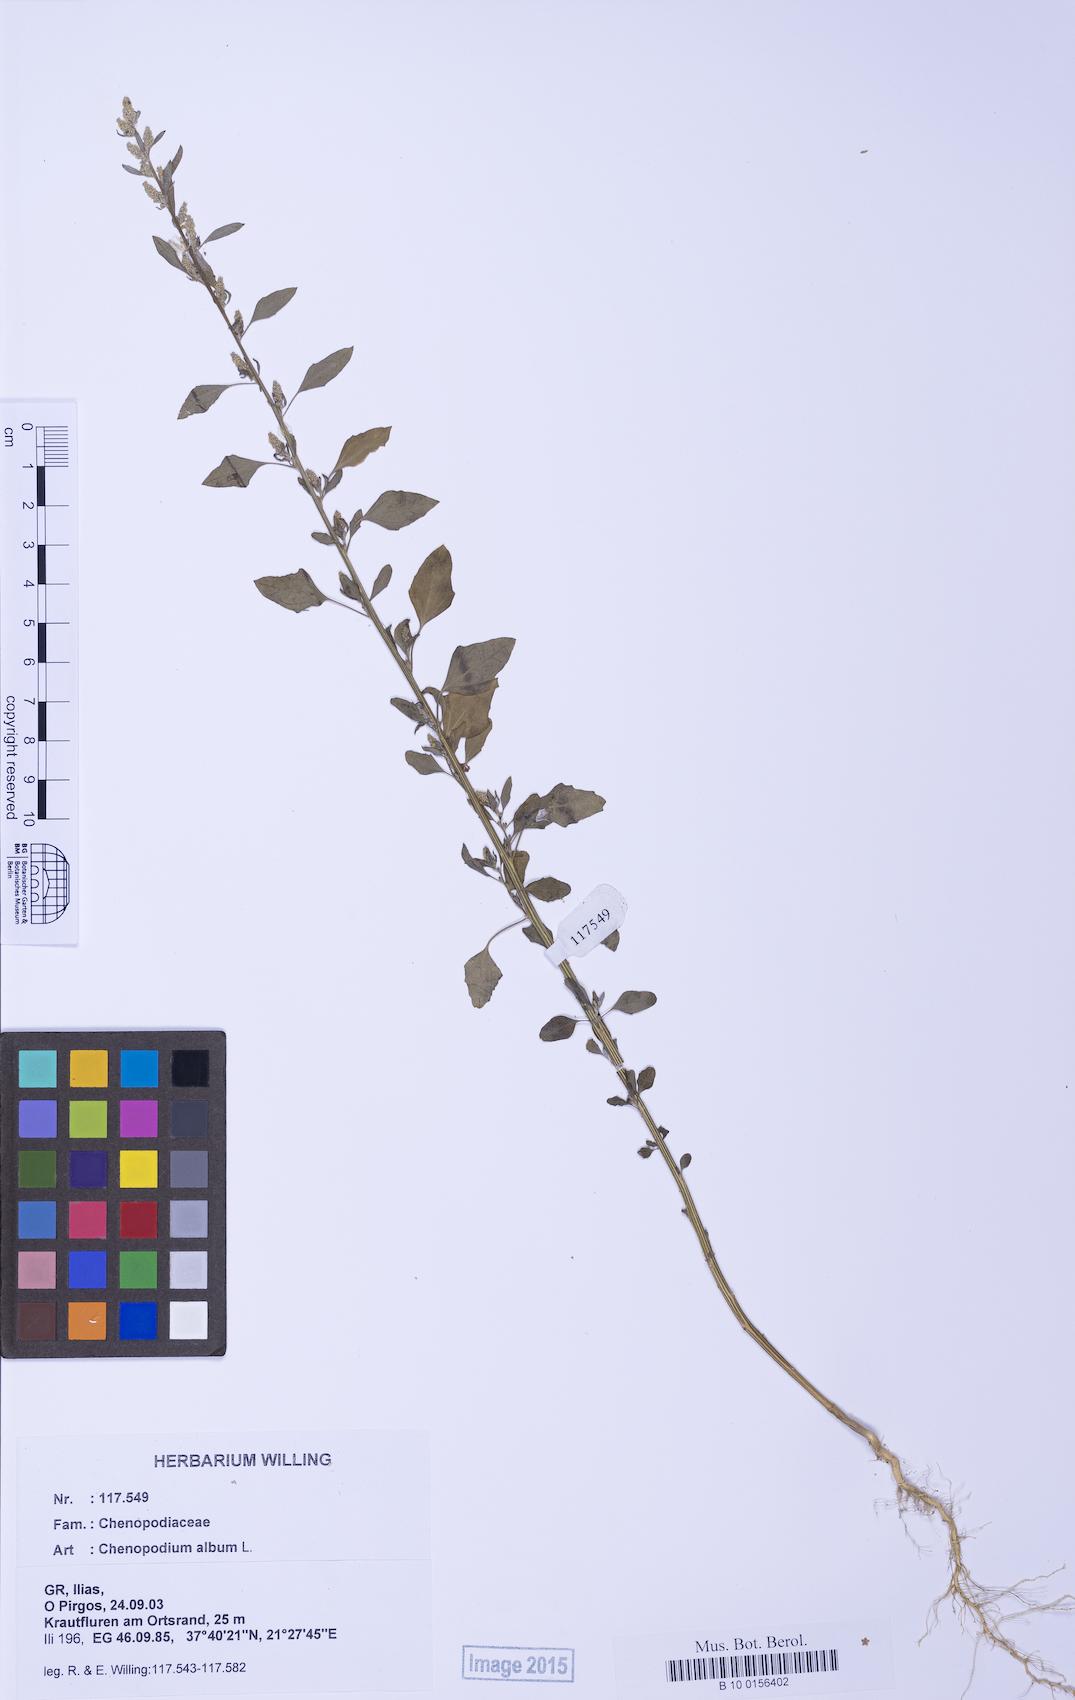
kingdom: Plantae
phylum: Tracheophyta
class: Magnoliopsida
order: Caryophyllales
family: Amaranthaceae
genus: Chenopodium
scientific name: Chenopodium album
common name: Fat-hen
